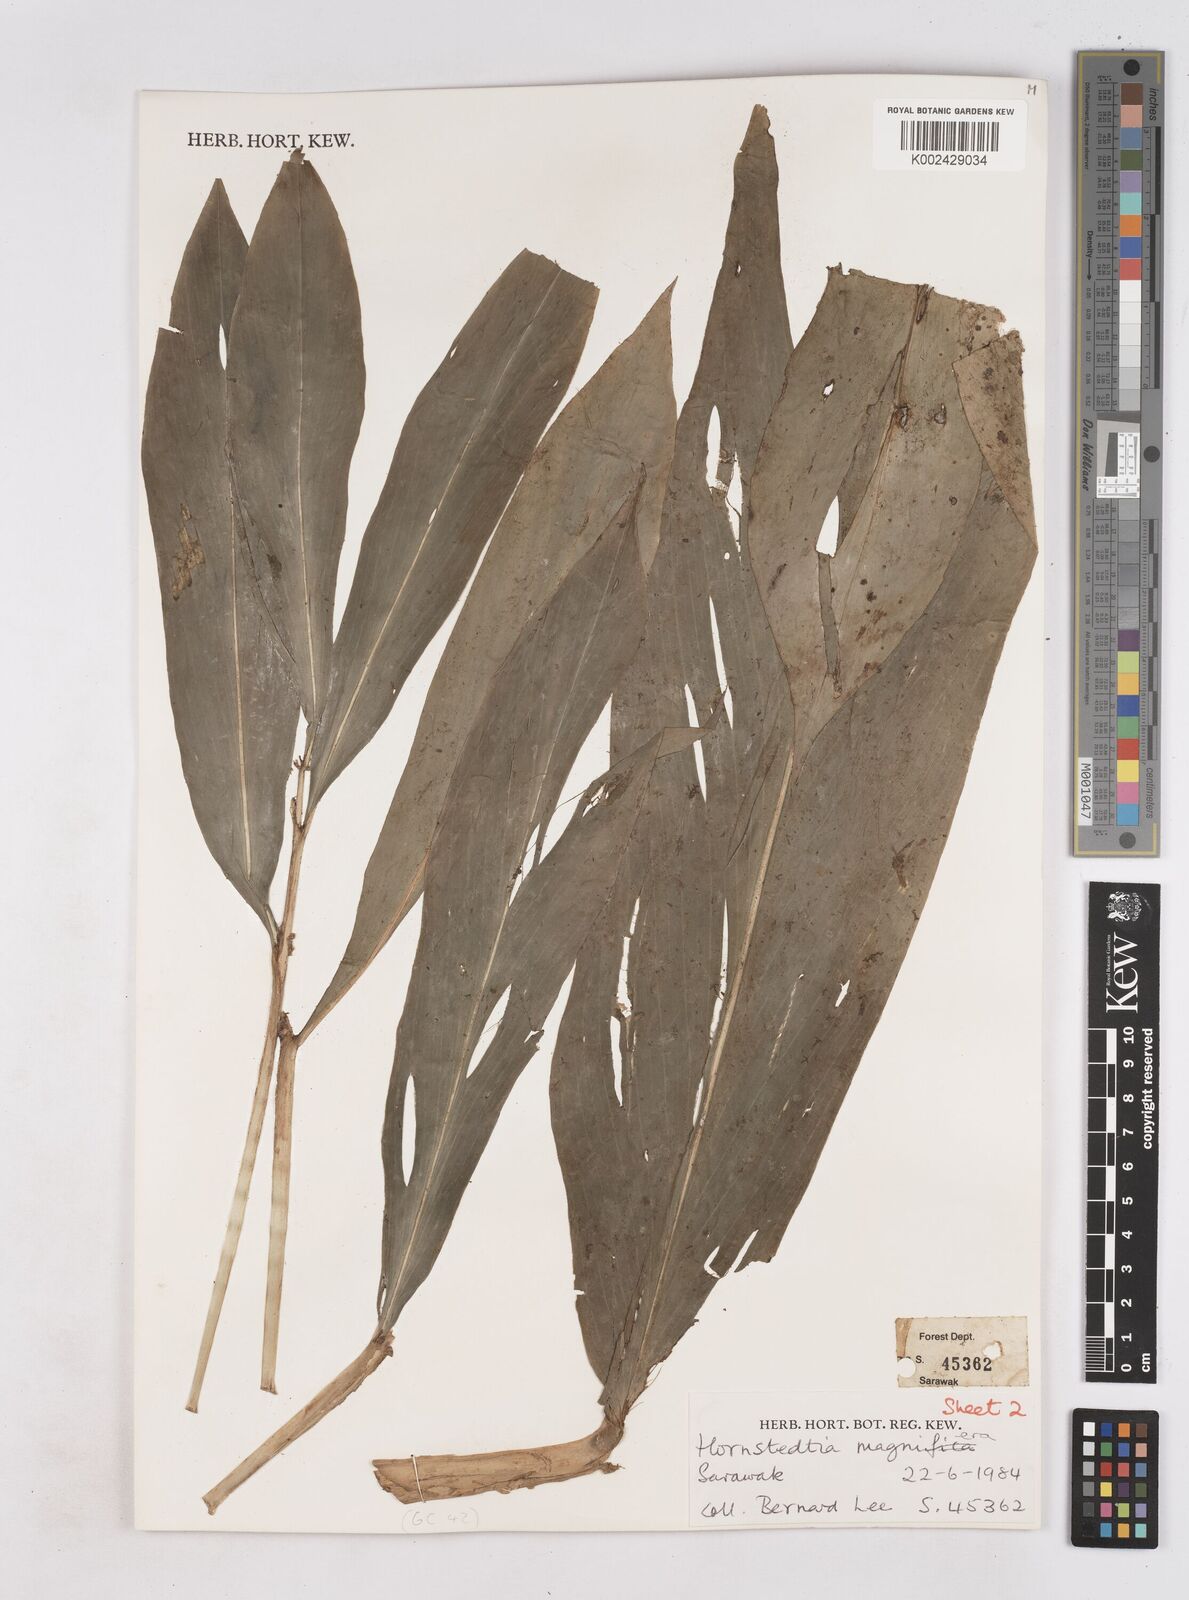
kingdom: Plantae
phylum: Tracheophyta
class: Liliopsida
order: Zingiberales
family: Zingiberaceae
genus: Zingiber
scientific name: Zingiber longipedunculatum
